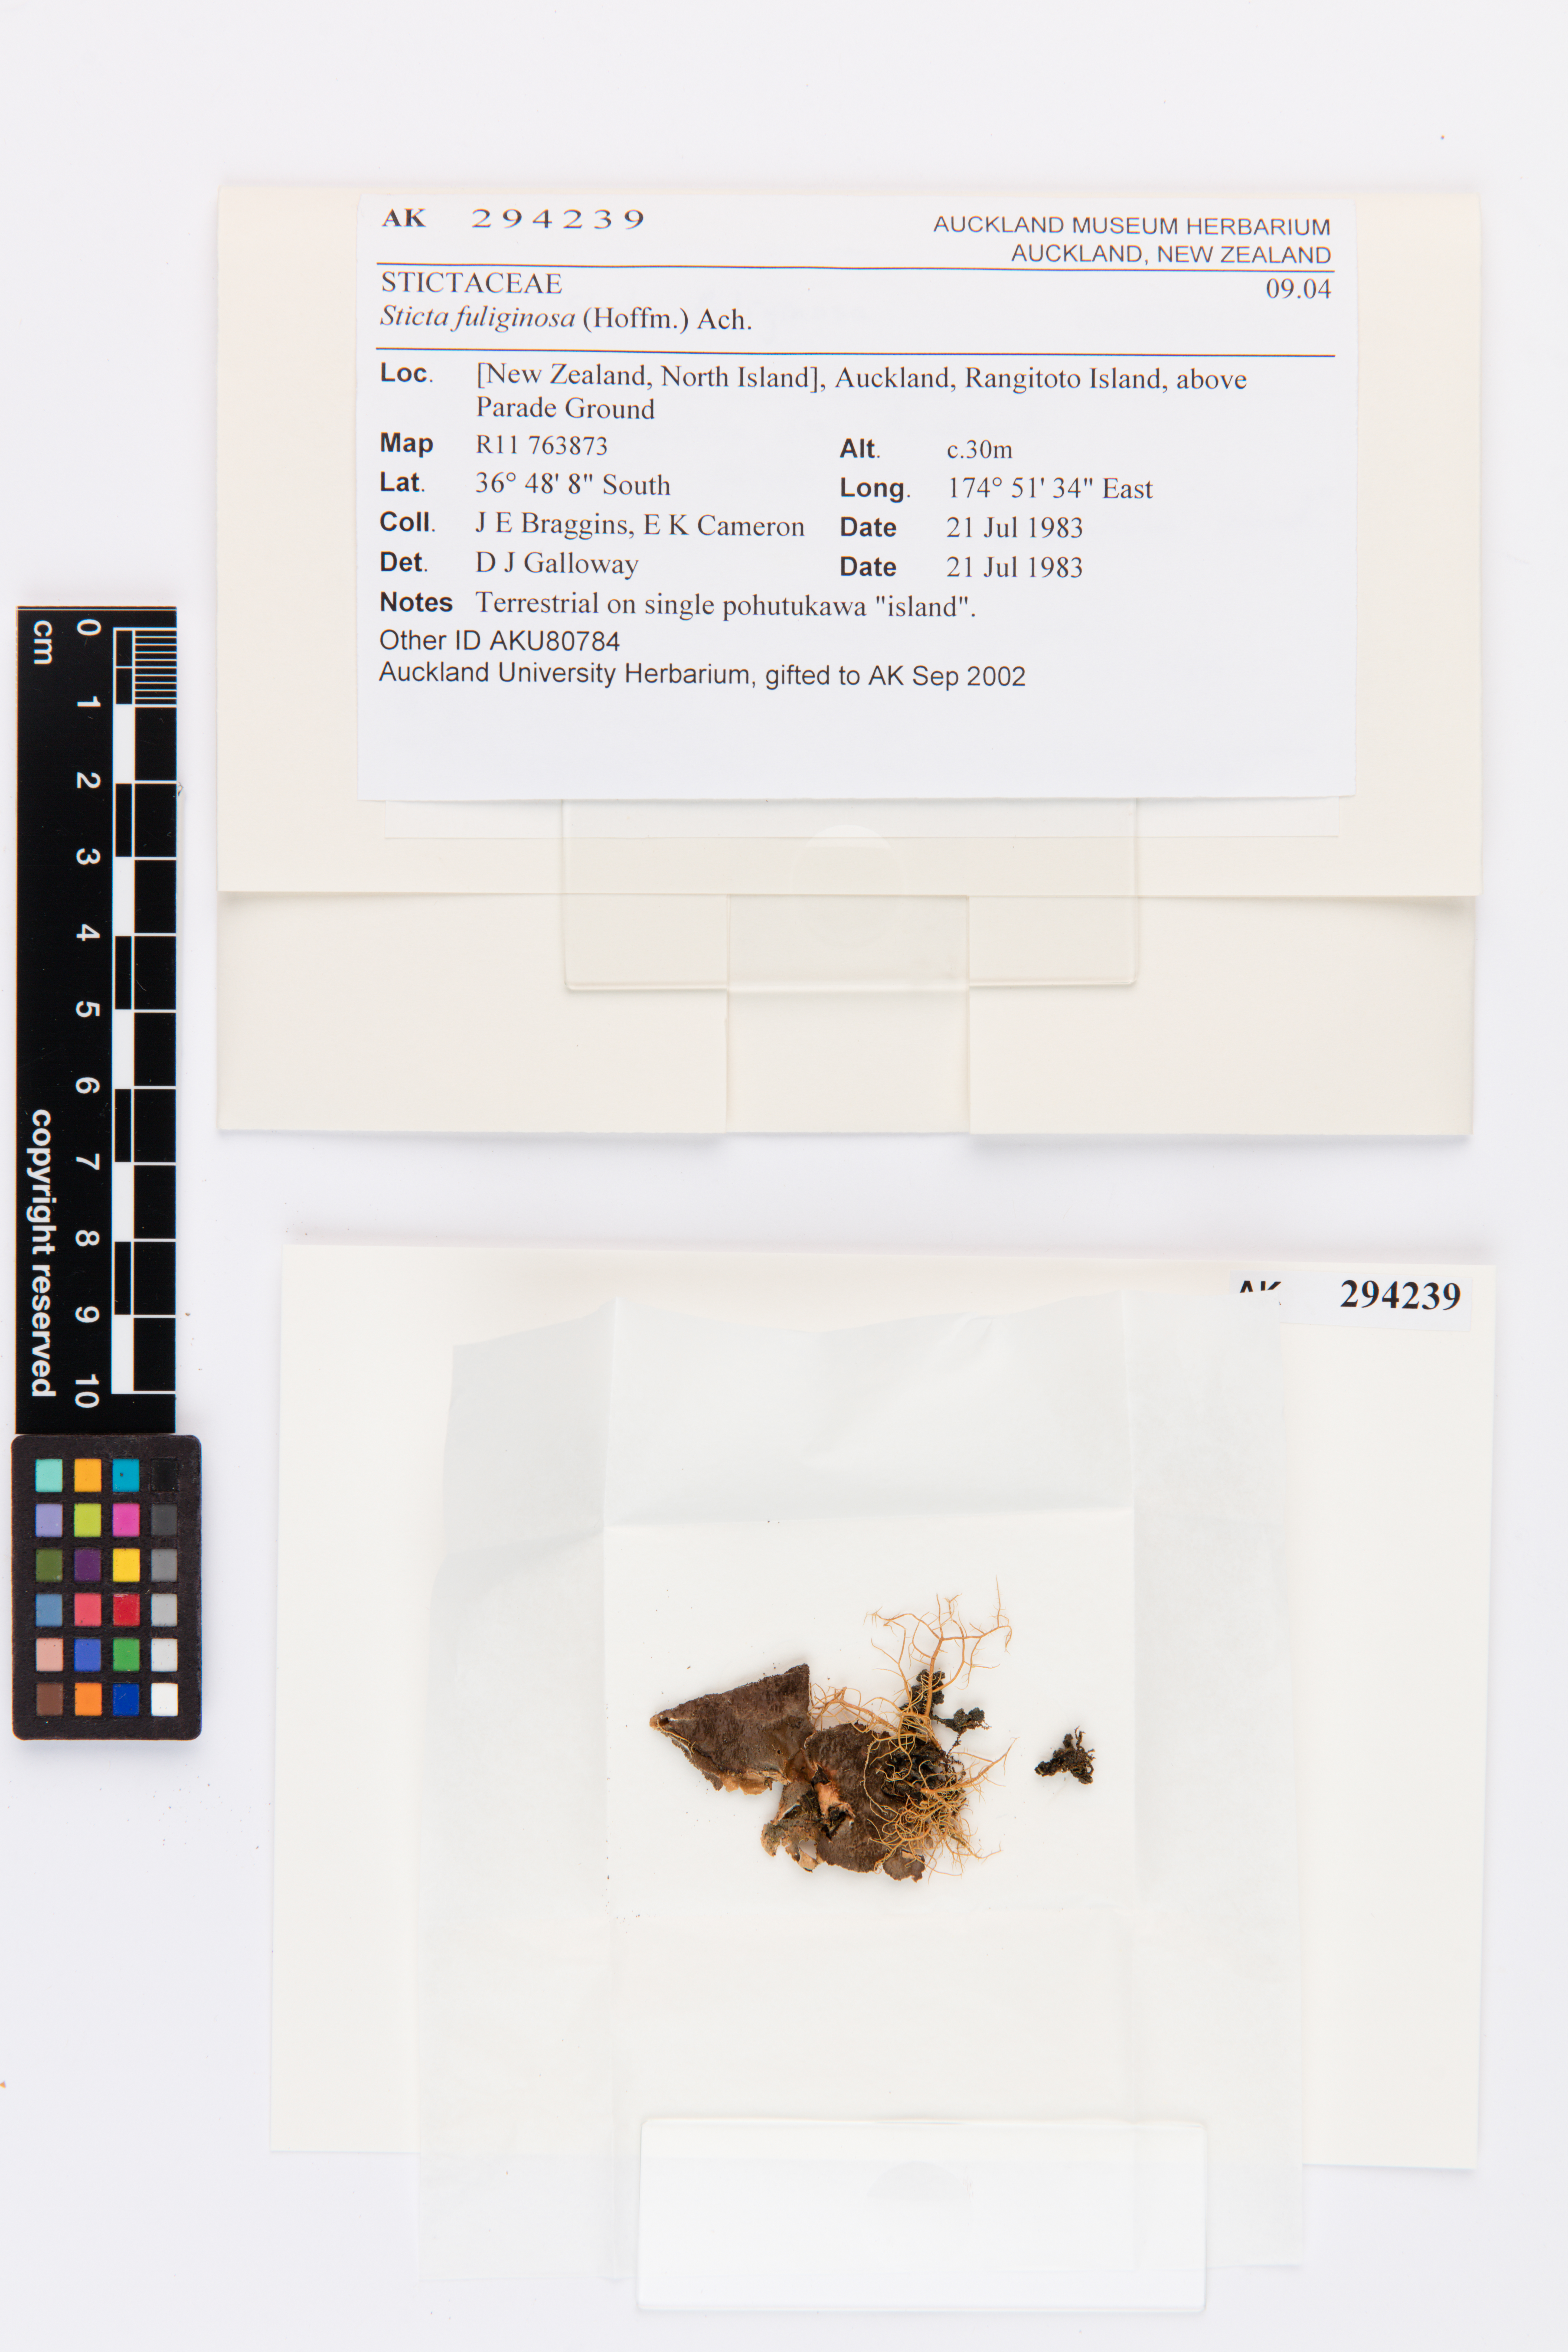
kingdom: Fungi
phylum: Ascomycota
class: Lecanoromycetes
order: Peltigerales
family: Lobariaceae
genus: Sticta
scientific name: Sticta fuliginosa
